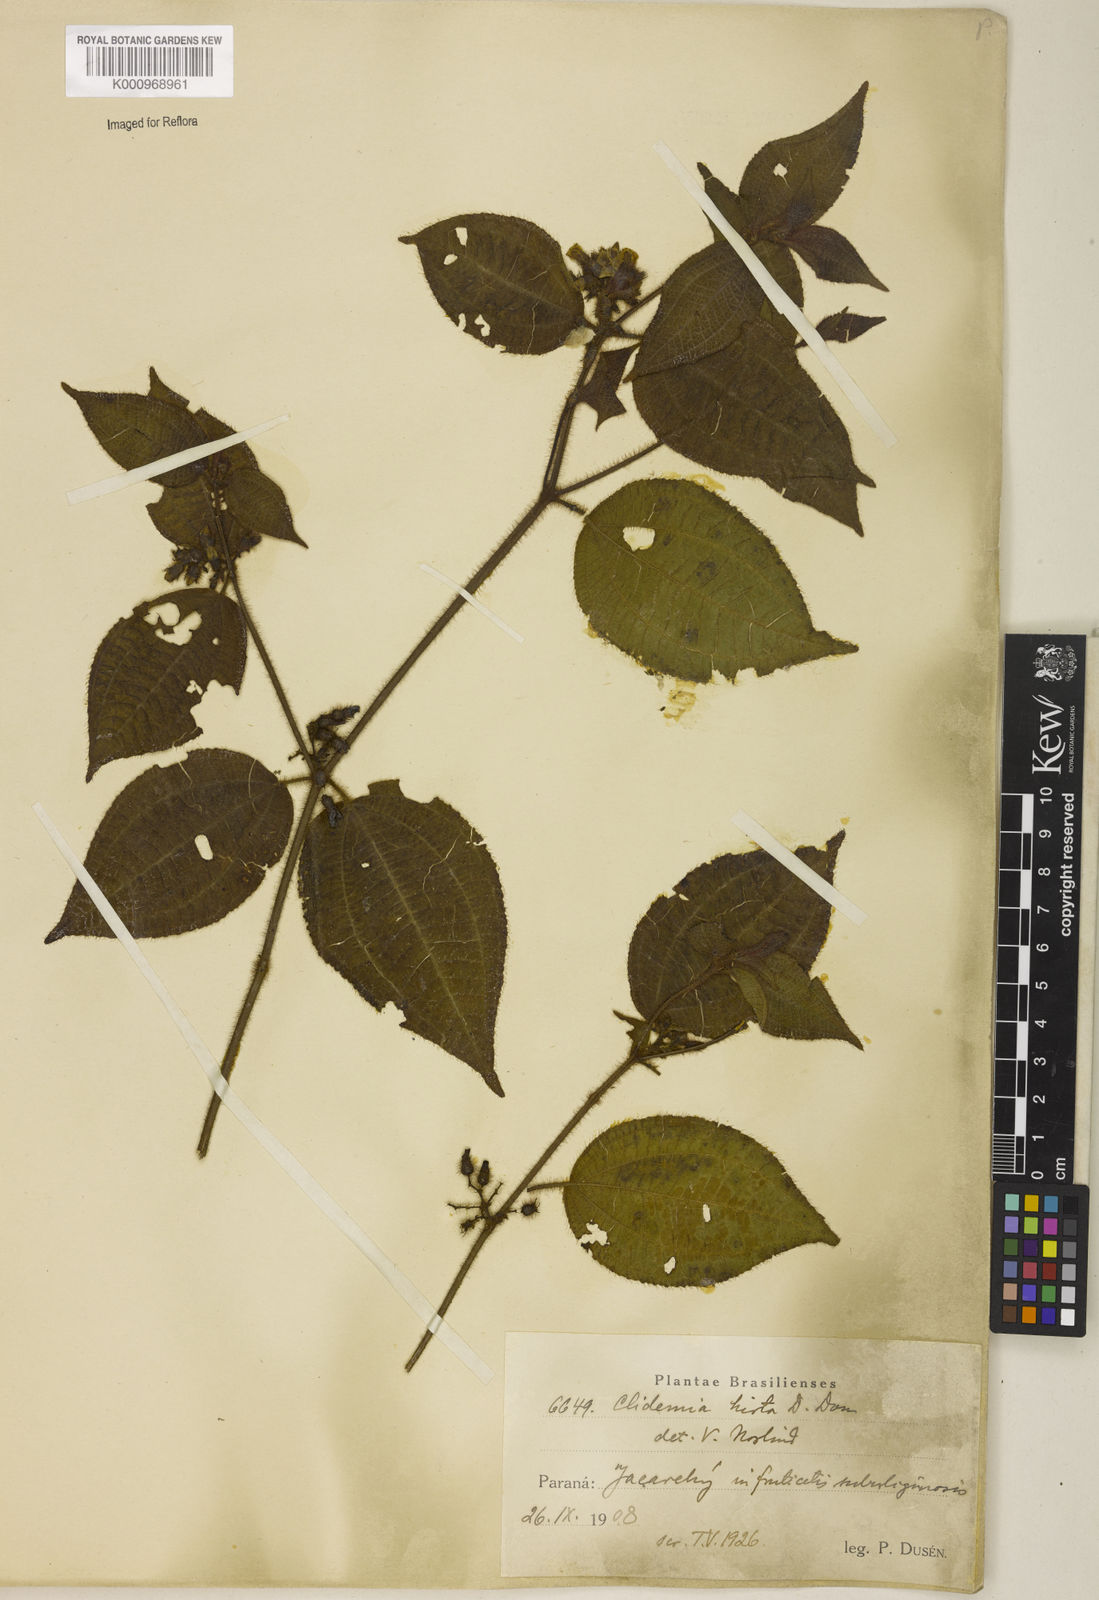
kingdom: Plantae
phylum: Tracheophyta
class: Magnoliopsida
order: Myrtales
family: Melastomataceae
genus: Miconia
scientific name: Miconia crenata
